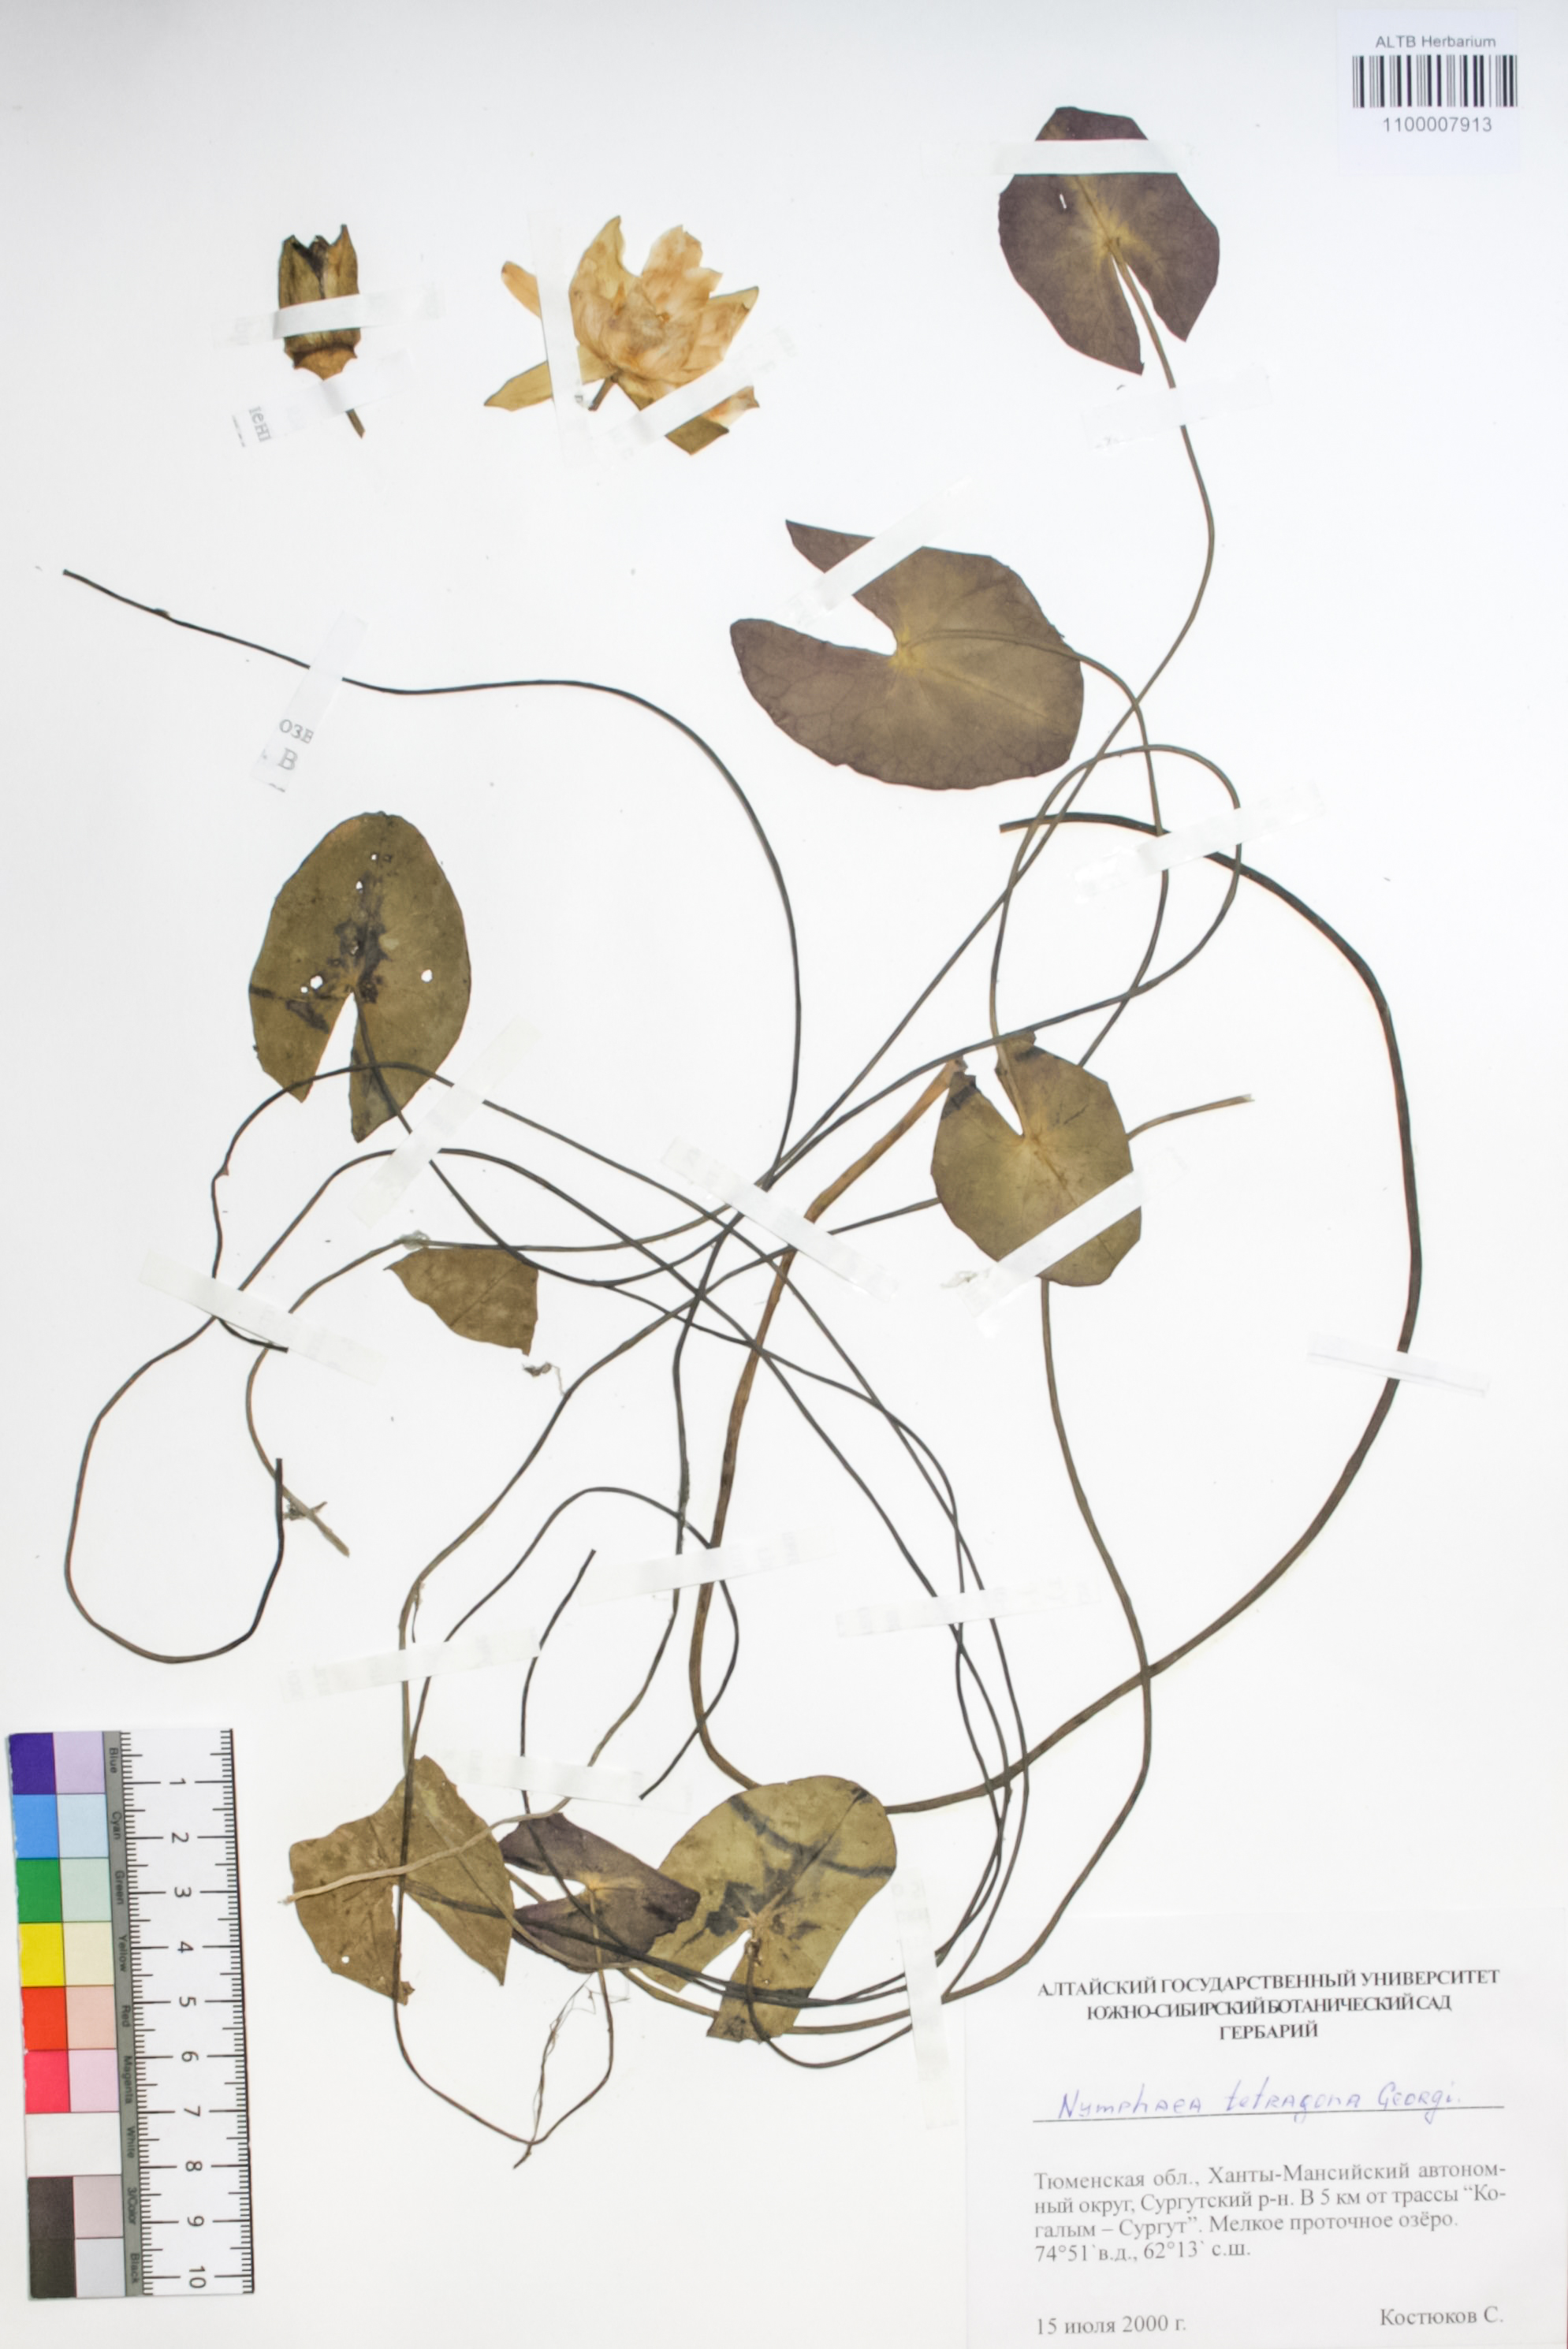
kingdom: Plantae
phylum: Tracheophyta
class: Magnoliopsida
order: Nymphaeales
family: Nymphaeaceae
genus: Nymphaea
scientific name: Nymphaea tetragona
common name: Pygmy water-lily
